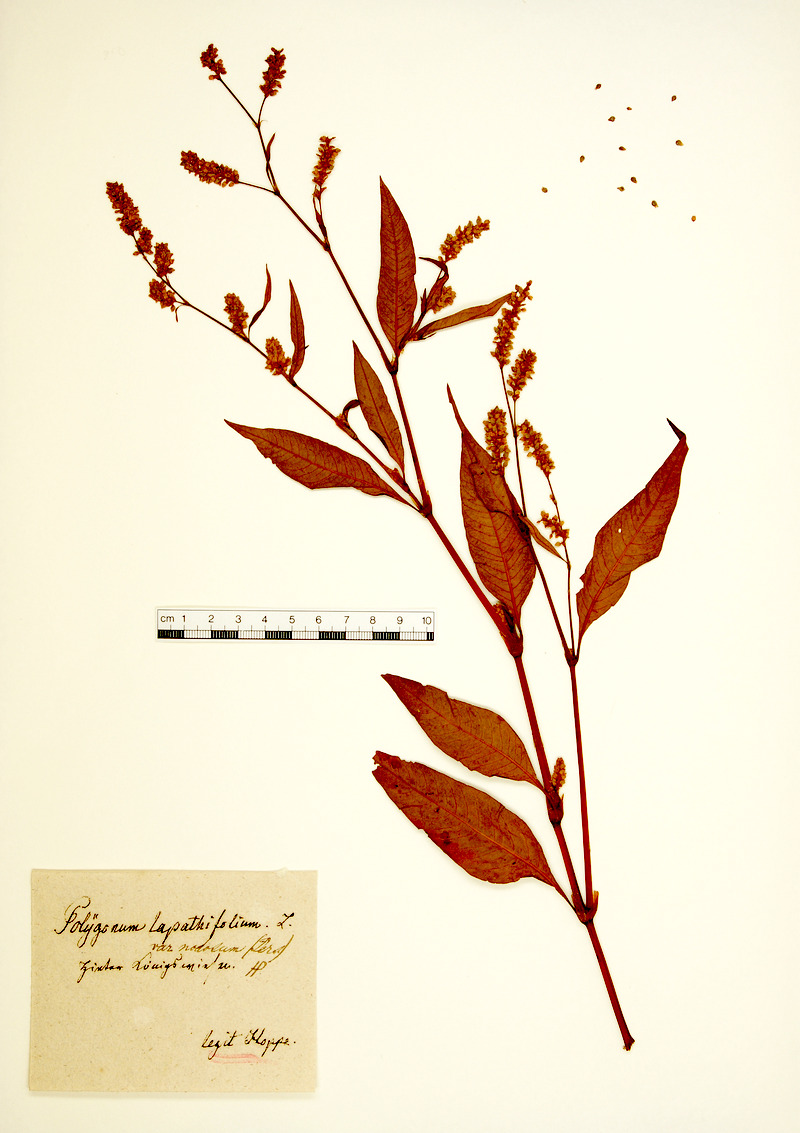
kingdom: Plantae
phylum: Tracheophyta
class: Magnoliopsida
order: Caryophyllales
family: Polygonaceae
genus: Persicaria
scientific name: Persicaria lapathifolia
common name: Curlytop knotweed
